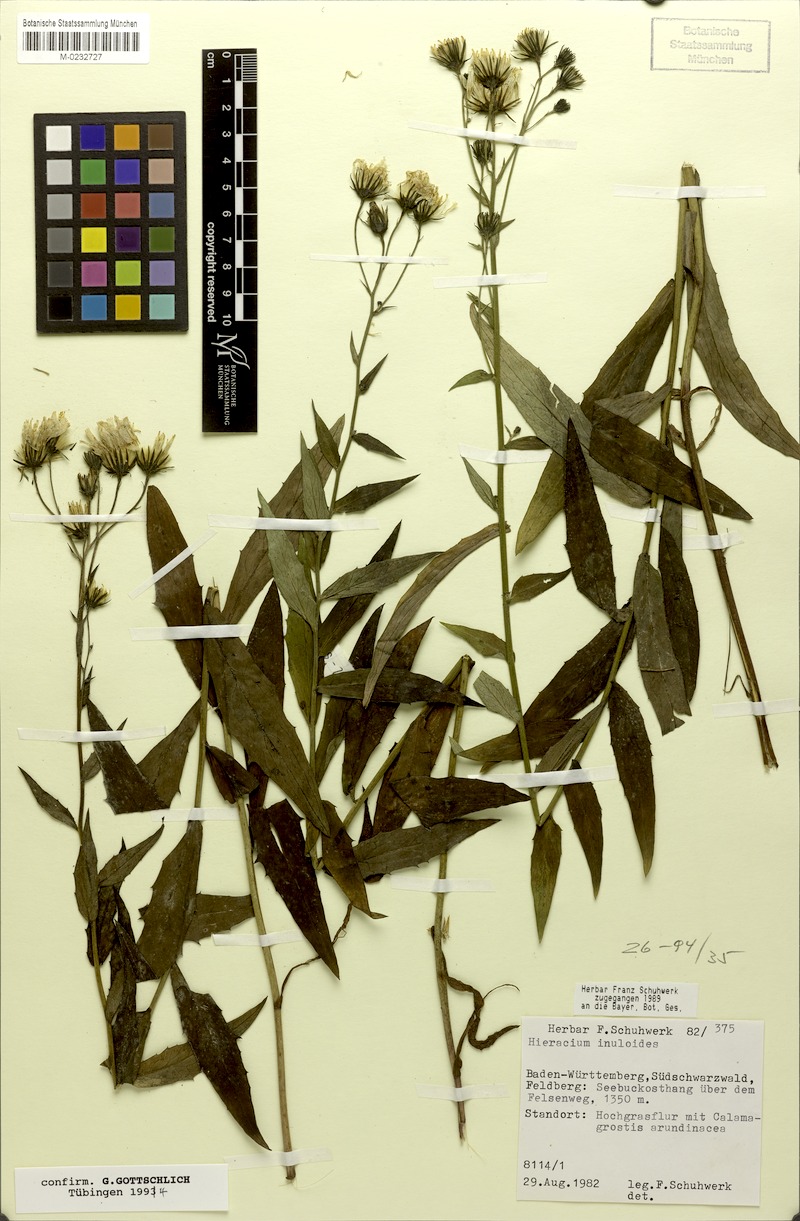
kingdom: Plantae
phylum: Tracheophyta
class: Magnoliopsida
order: Asterales
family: Asteraceae
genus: Hieracium
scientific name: Hieracium inuloides
